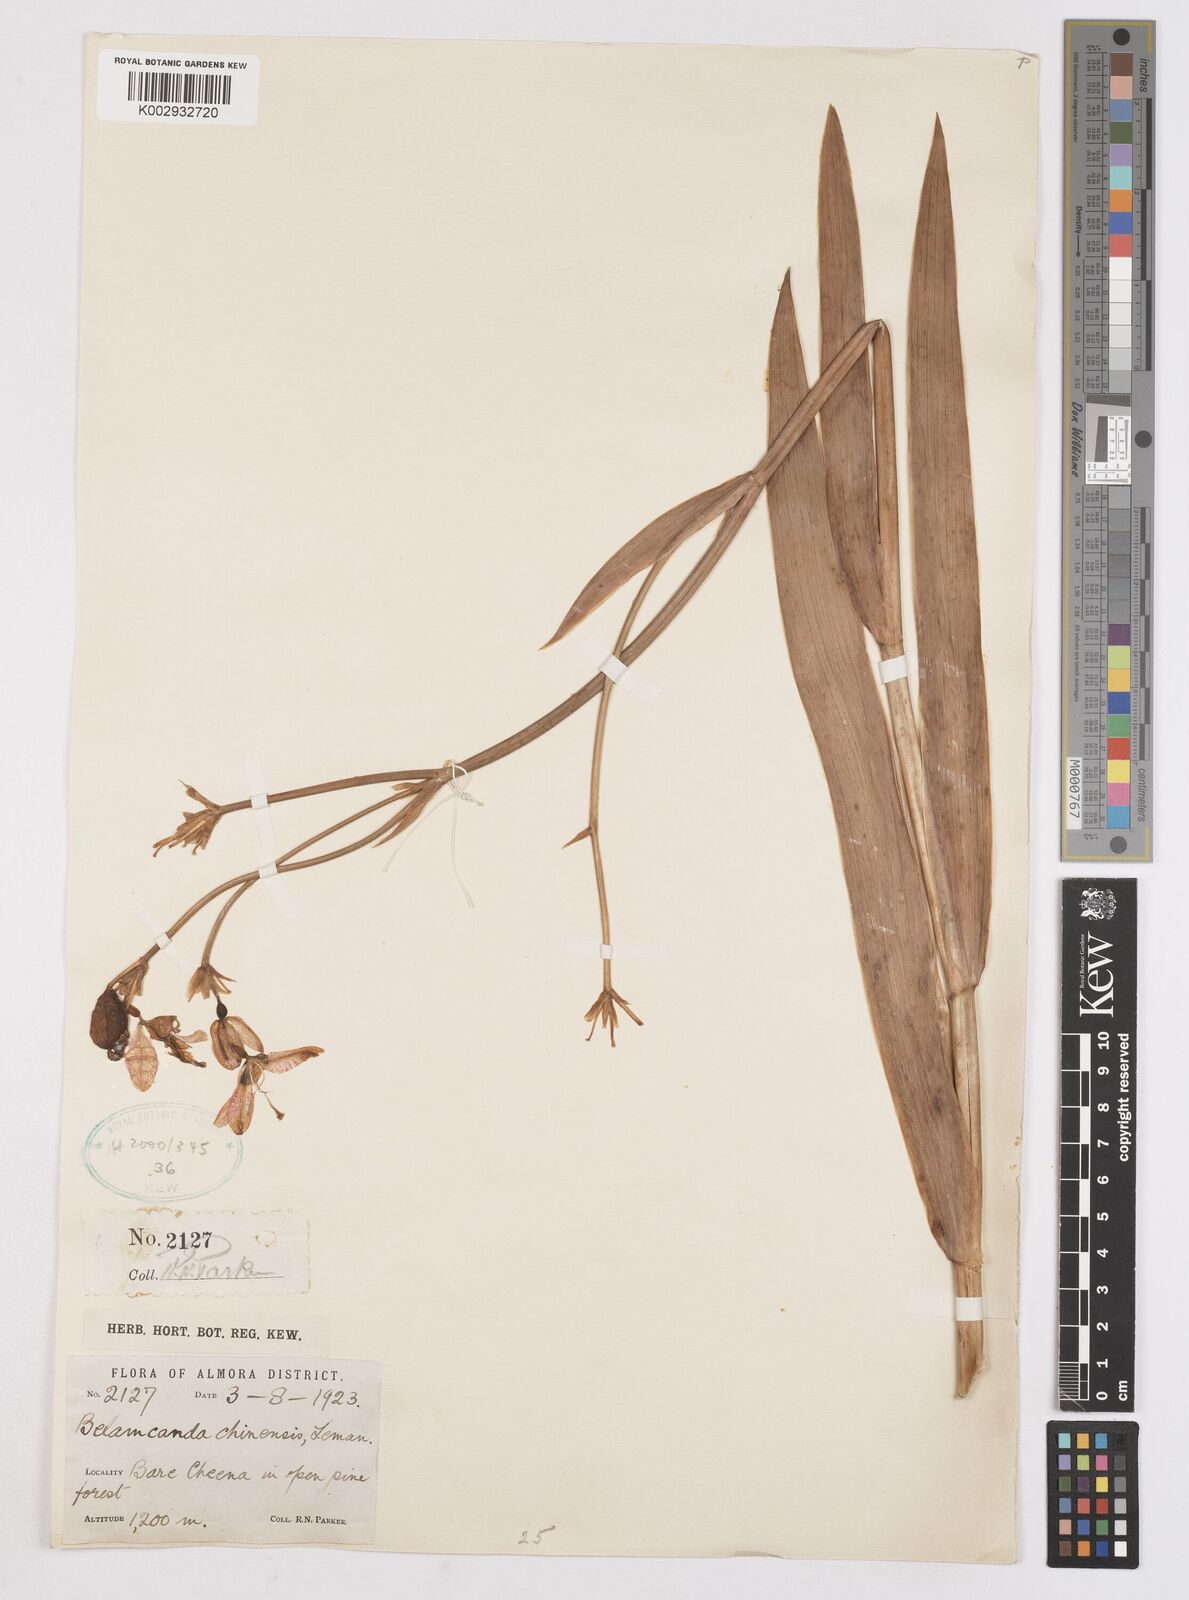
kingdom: Plantae
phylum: Tracheophyta
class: Liliopsida
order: Asparagales
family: Iridaceae
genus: Iris
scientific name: Iris
